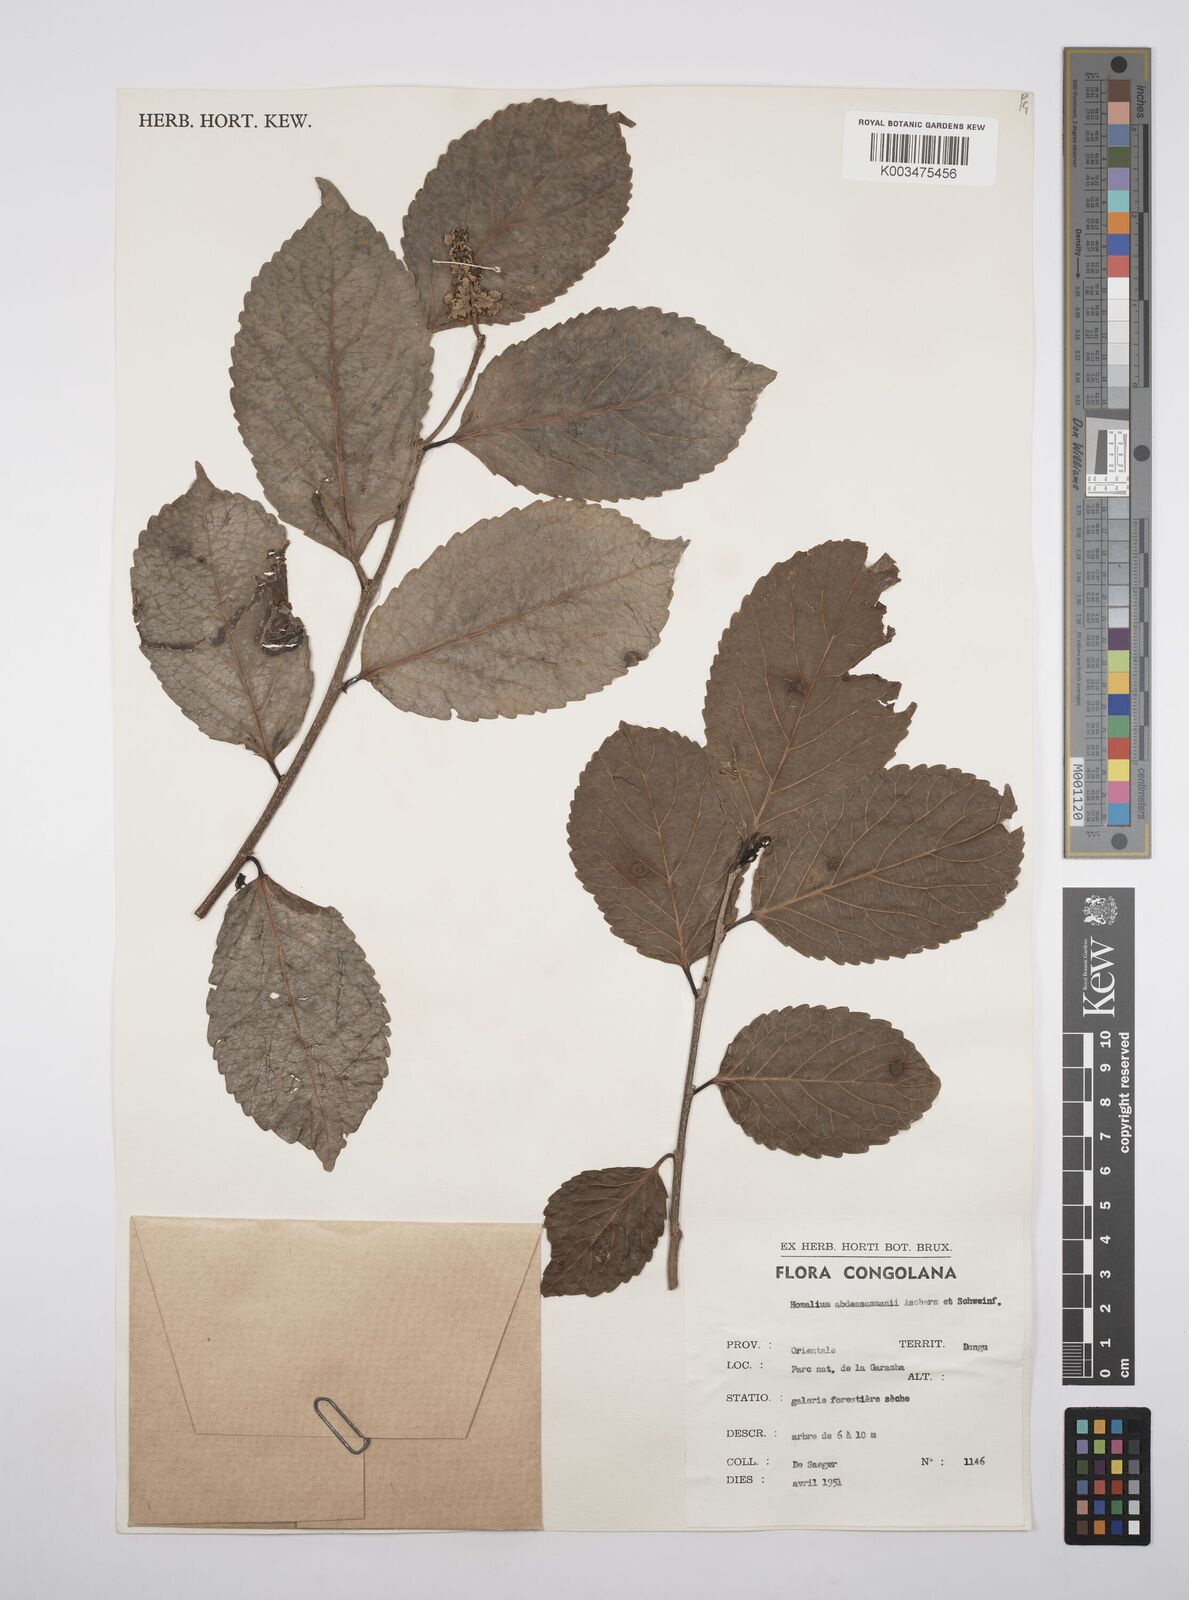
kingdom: Plantae
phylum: Tracheophyta
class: Magnoliopsida
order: Malpighiales
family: Salicaceae
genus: Homalium
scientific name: Homalium abdessammadii
